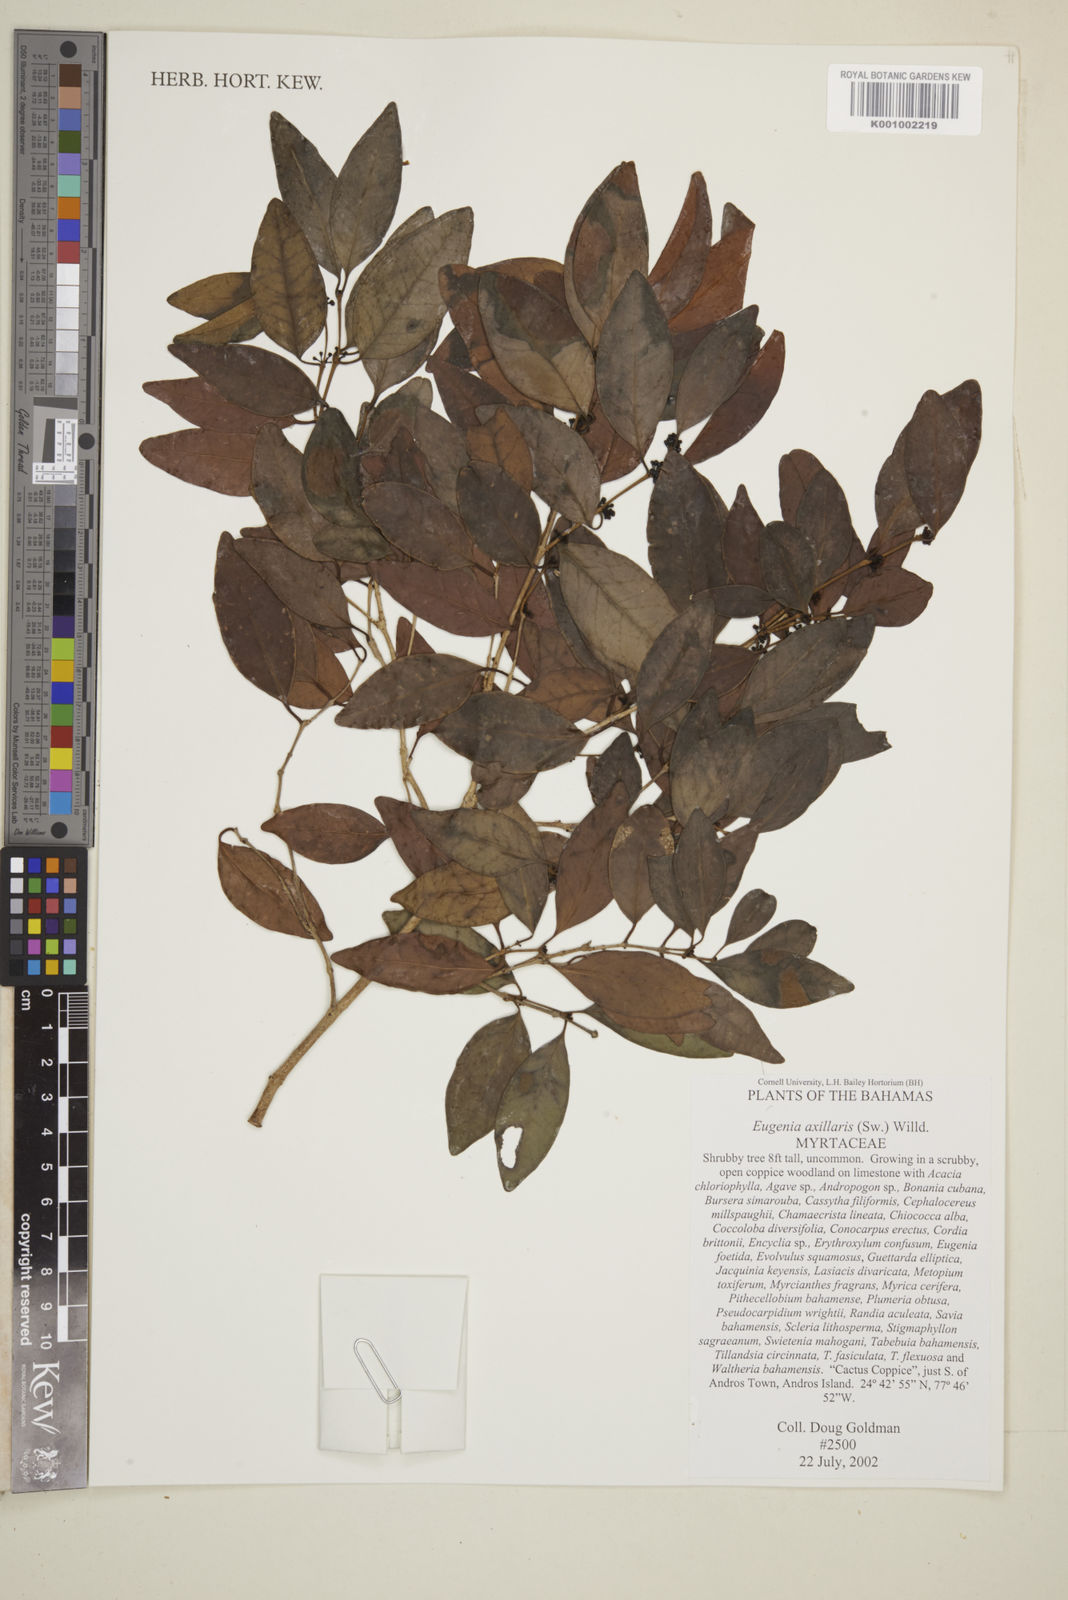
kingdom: Plantae
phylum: Tracheophyta
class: Magnoliopsida
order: Myrtales
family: Myrtaceae
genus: Eugenia
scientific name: Eugenia axillaris
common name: Choaky berry
